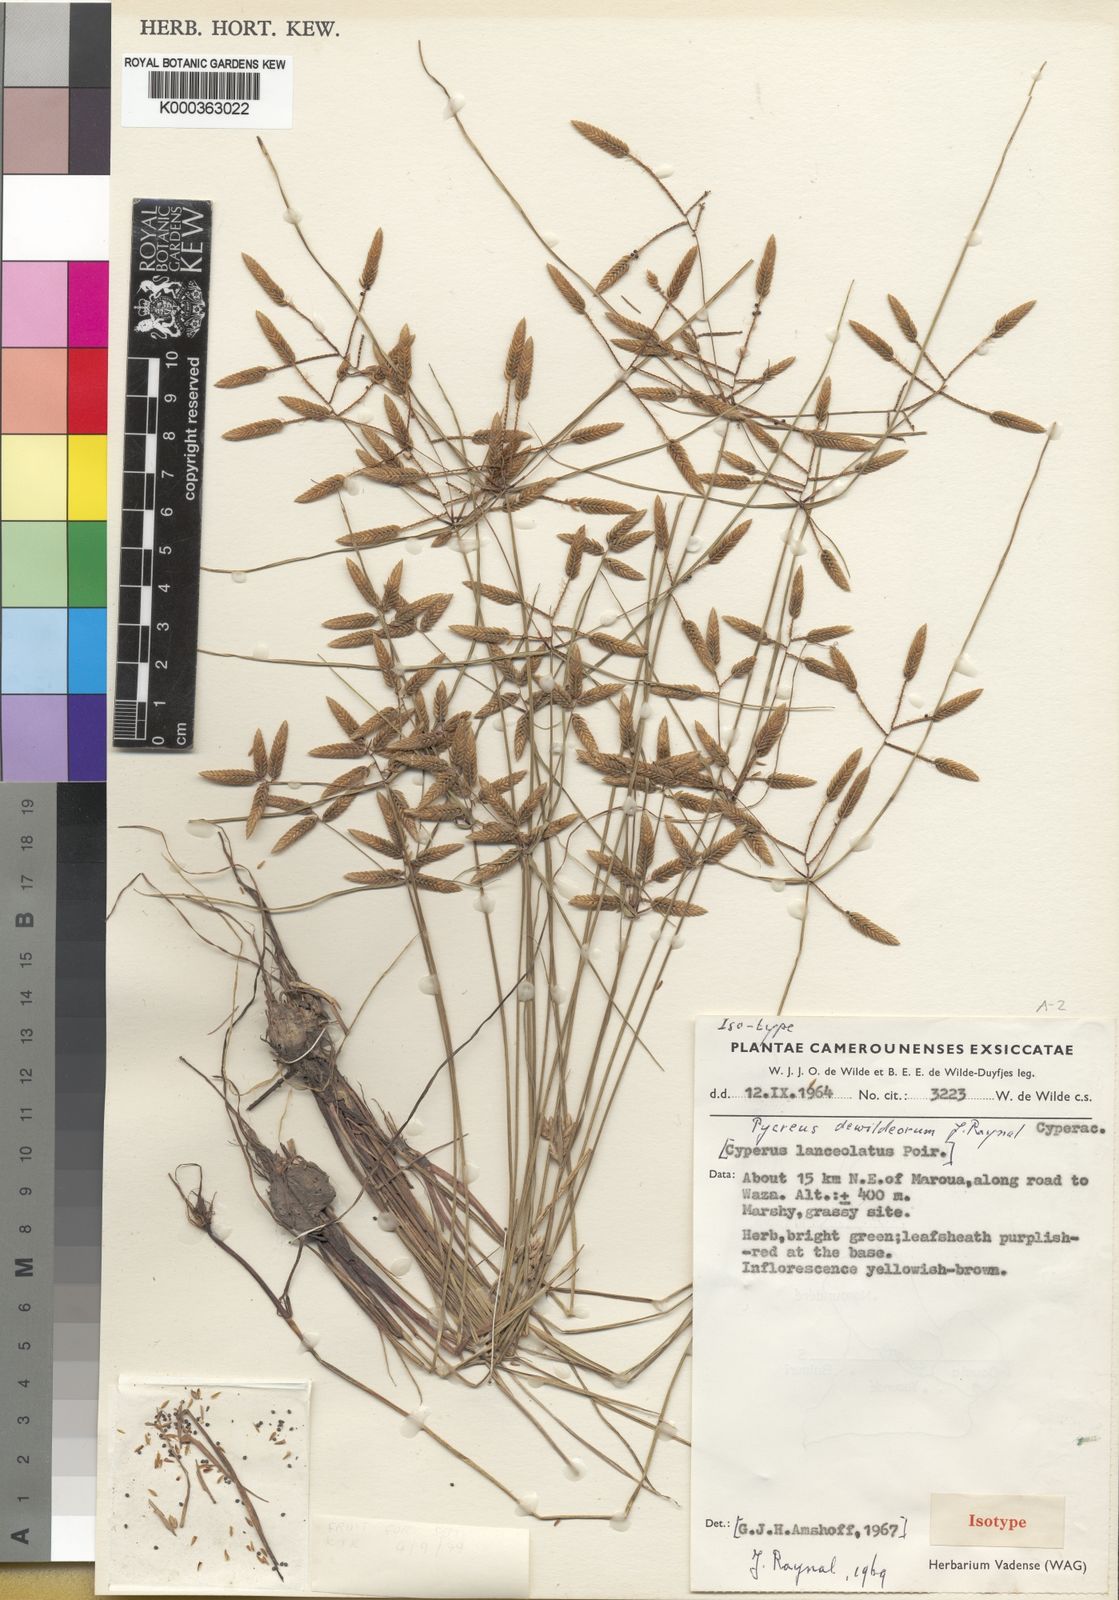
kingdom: Plantae
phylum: Tracheophyta
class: Liliopsida
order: Poales
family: Cyperaceae
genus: Cyperus
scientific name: Cyperus xantholepis
